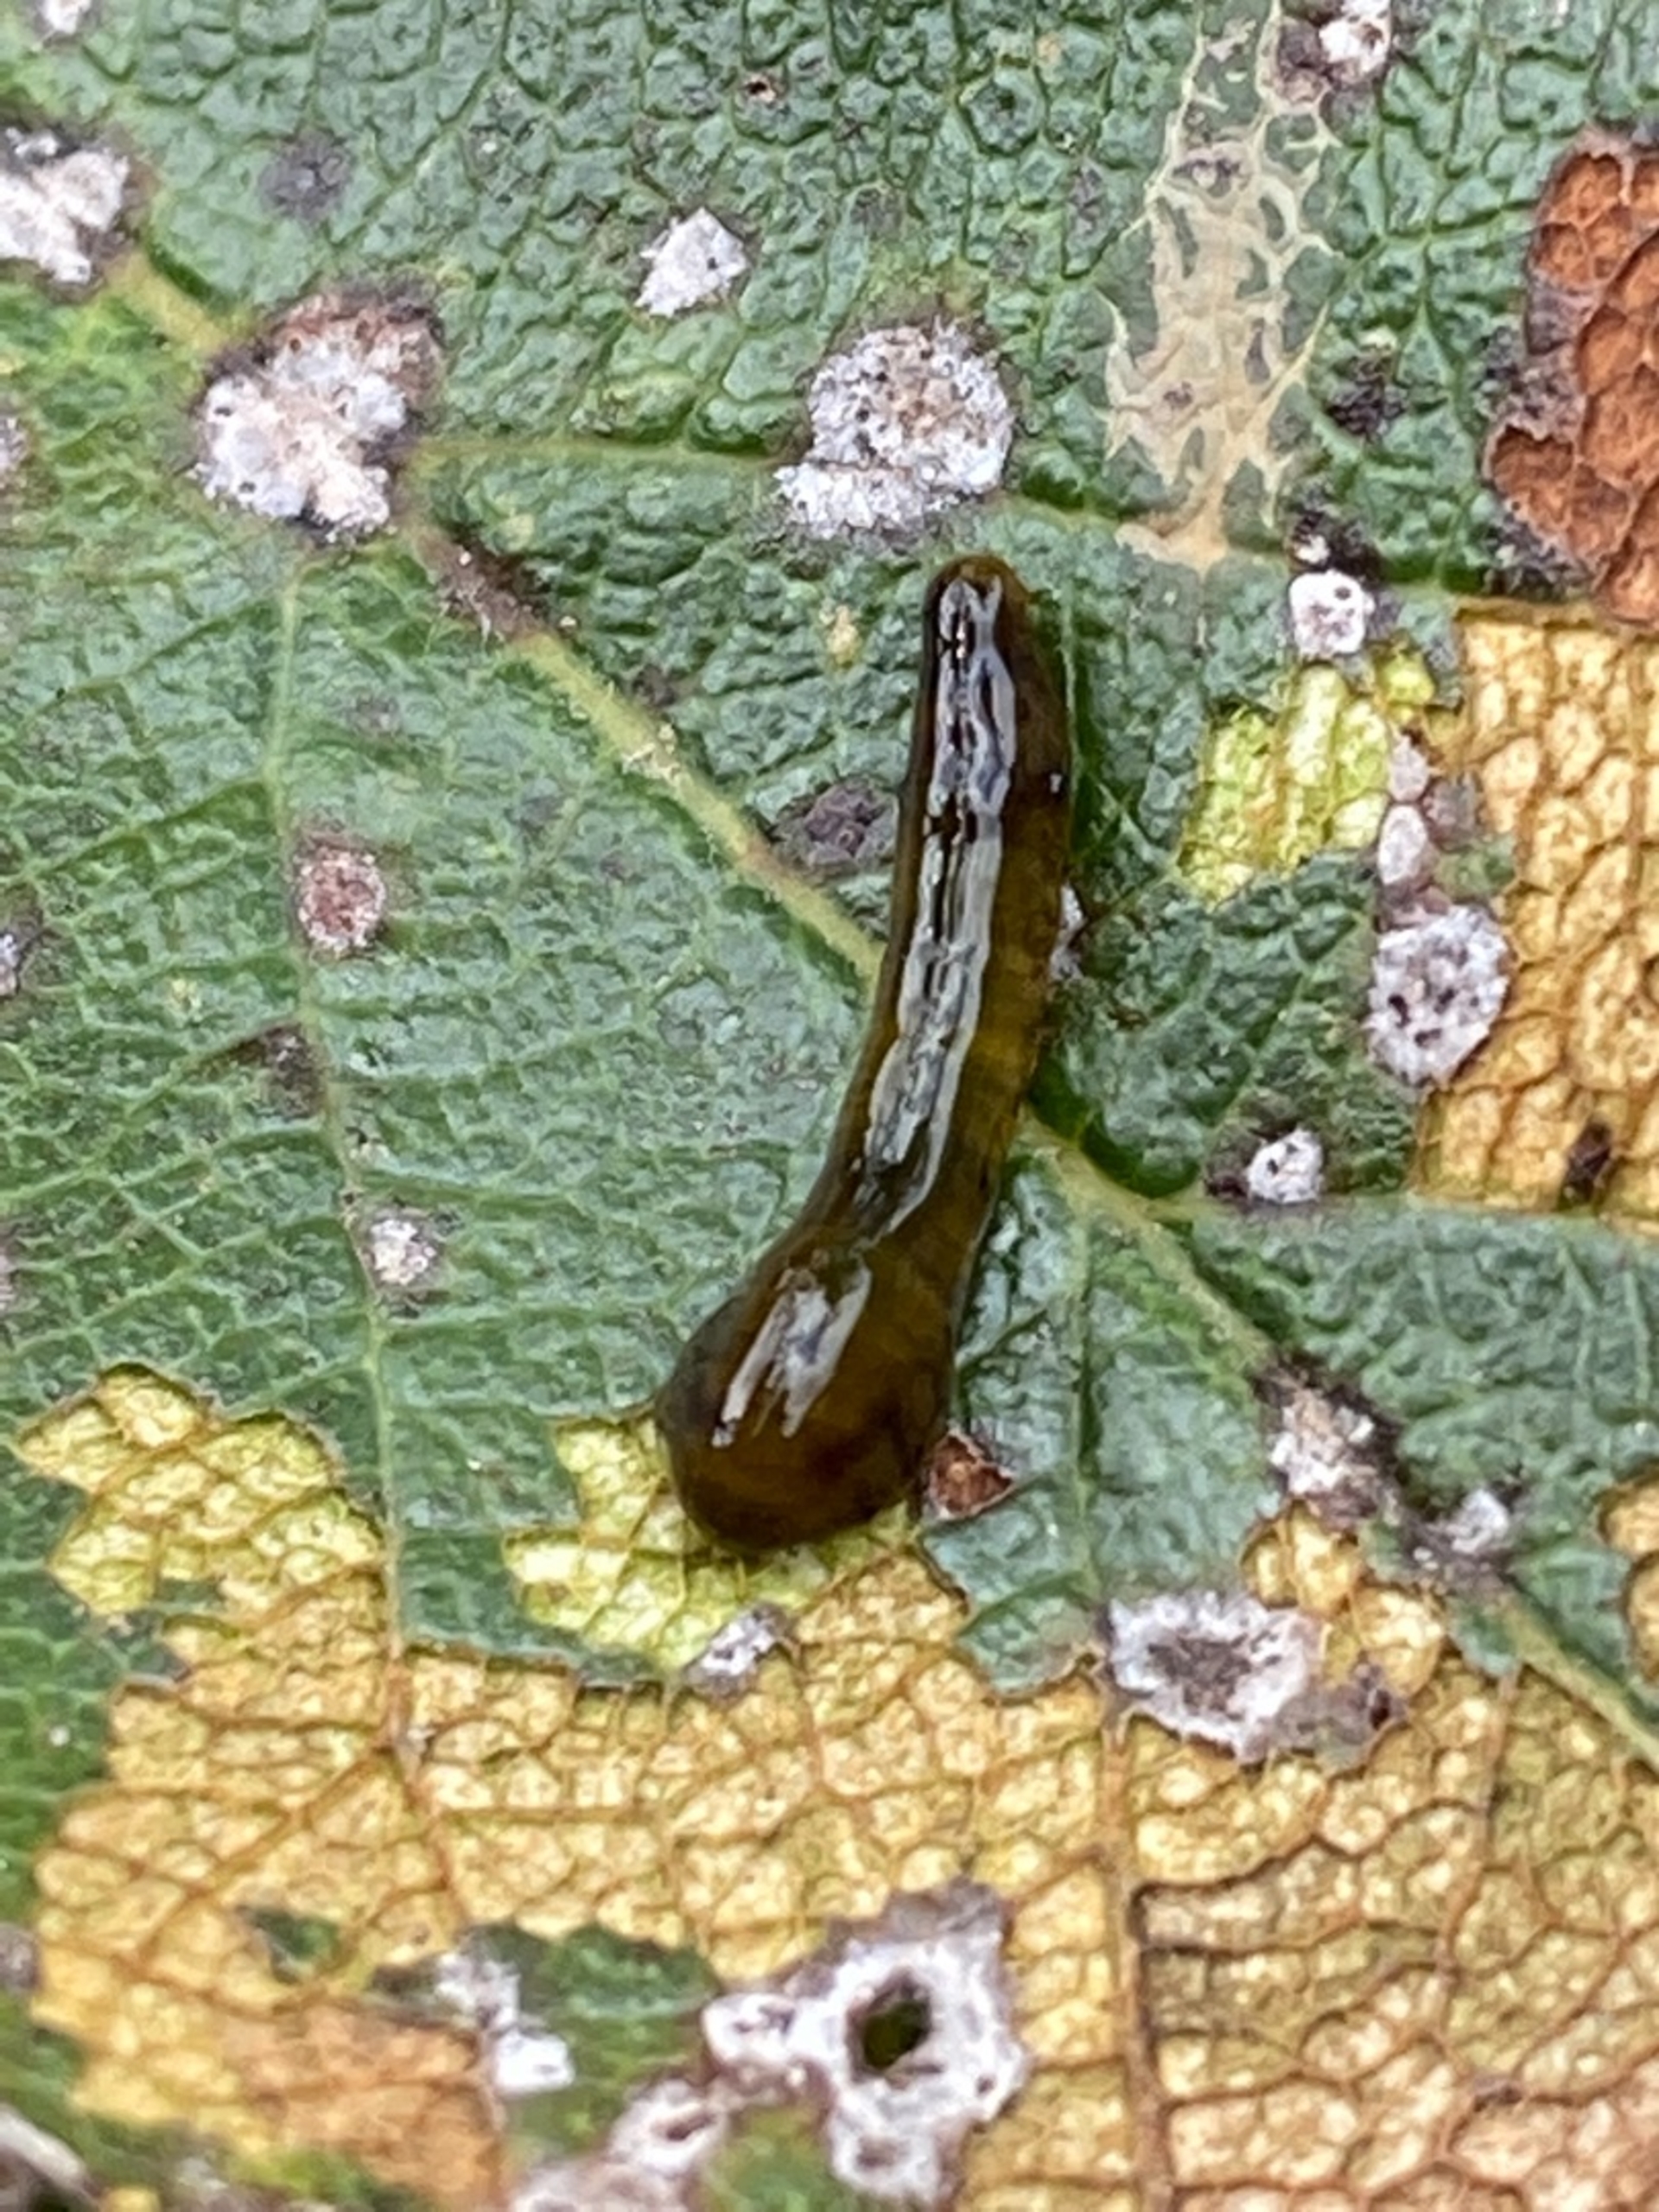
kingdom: Animalia
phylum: Arthropoda
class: Insecta
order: Hymenoptera
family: Tenthredinidae
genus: Caliroa
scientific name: Caliroa cerasi
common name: Frugttræbladhveps
